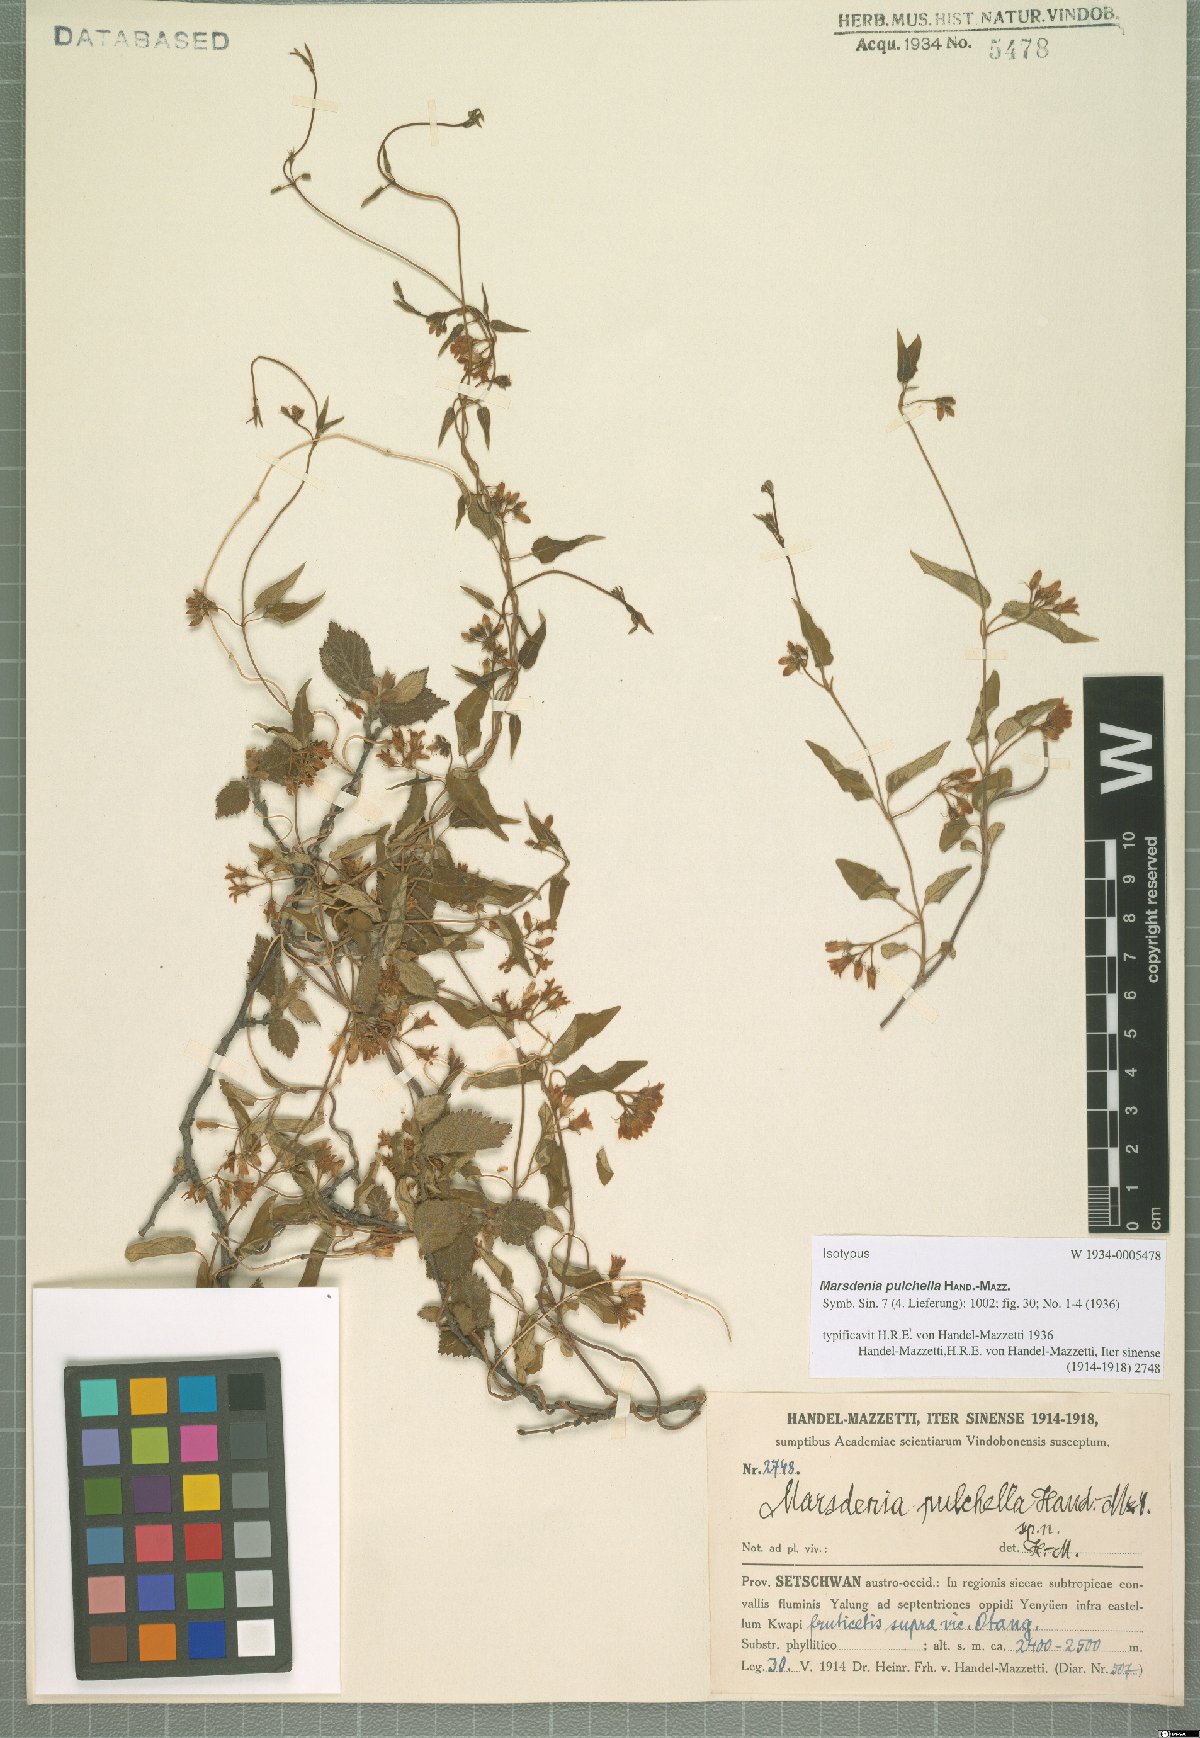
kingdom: Plantae
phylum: Tracheophyta
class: Magnoliopsida
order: Gentianales
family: Apocynaceae
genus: Marsdenia
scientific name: Marsdenia pulchella
